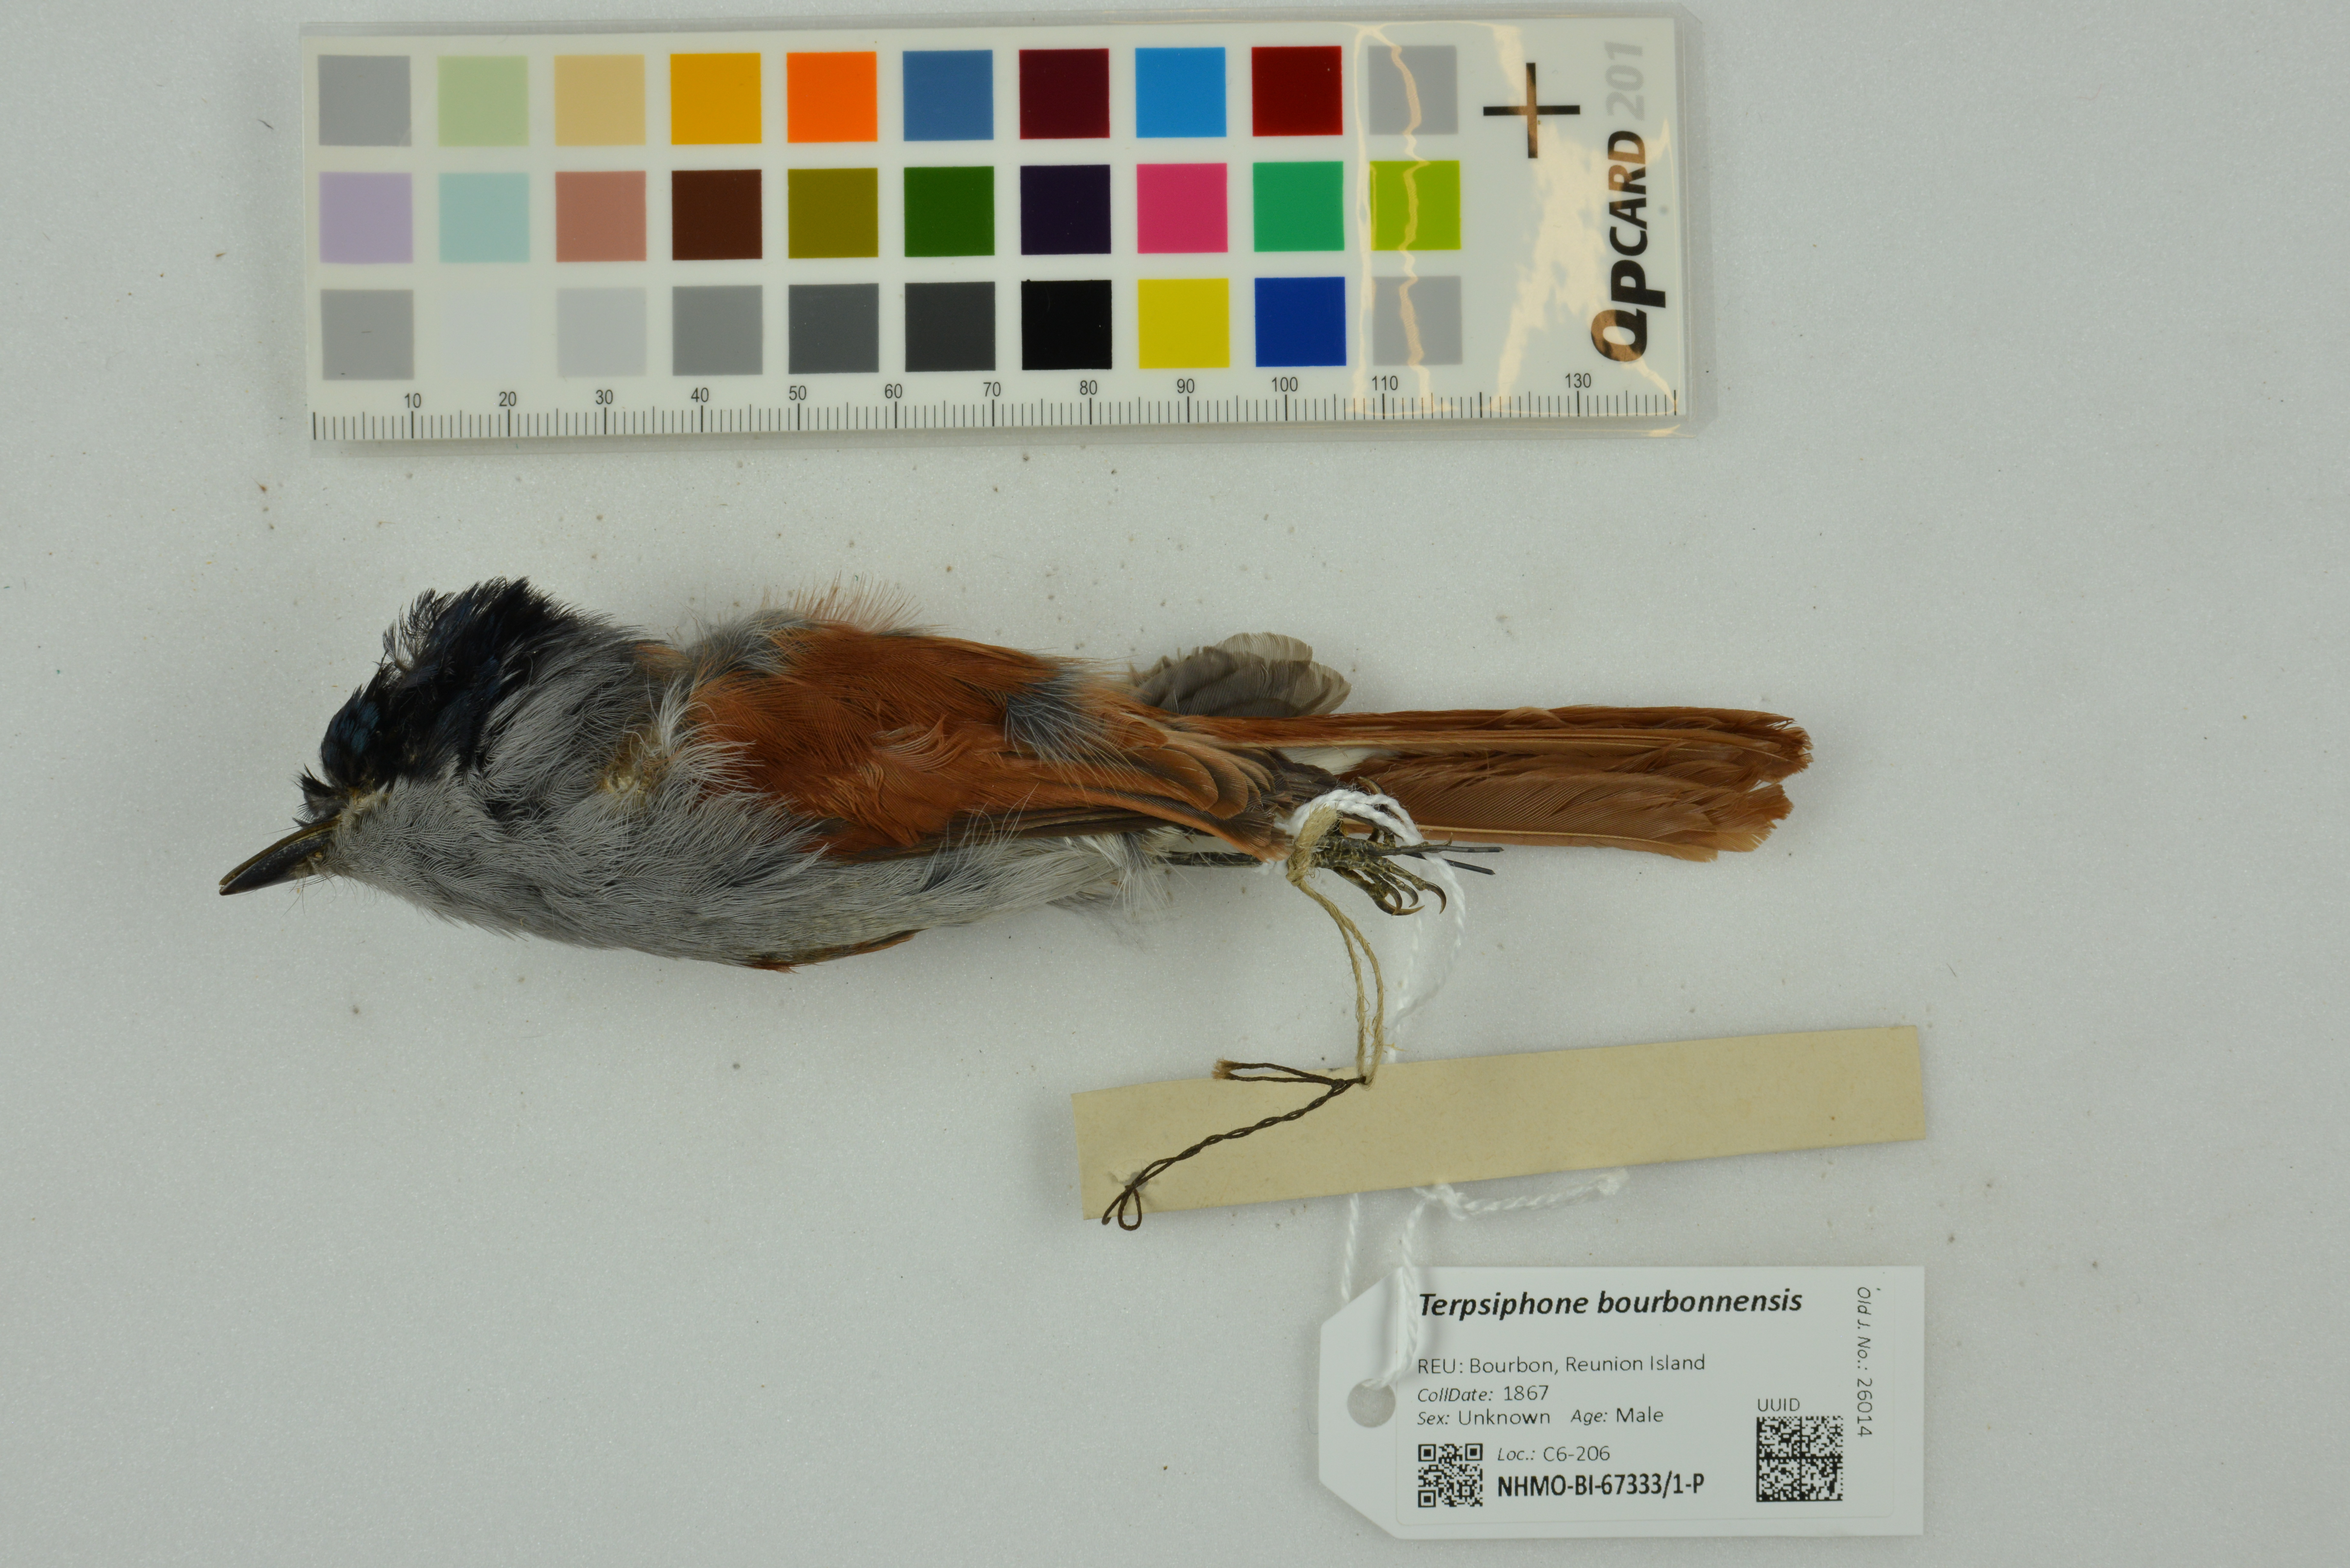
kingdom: Animalia
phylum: Chordata
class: Aves
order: Passeriformes
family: Monarchidae
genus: Terpsiphone
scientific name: Terpsiphone bourbonnensis
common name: Mascarene paradise flycatcher
